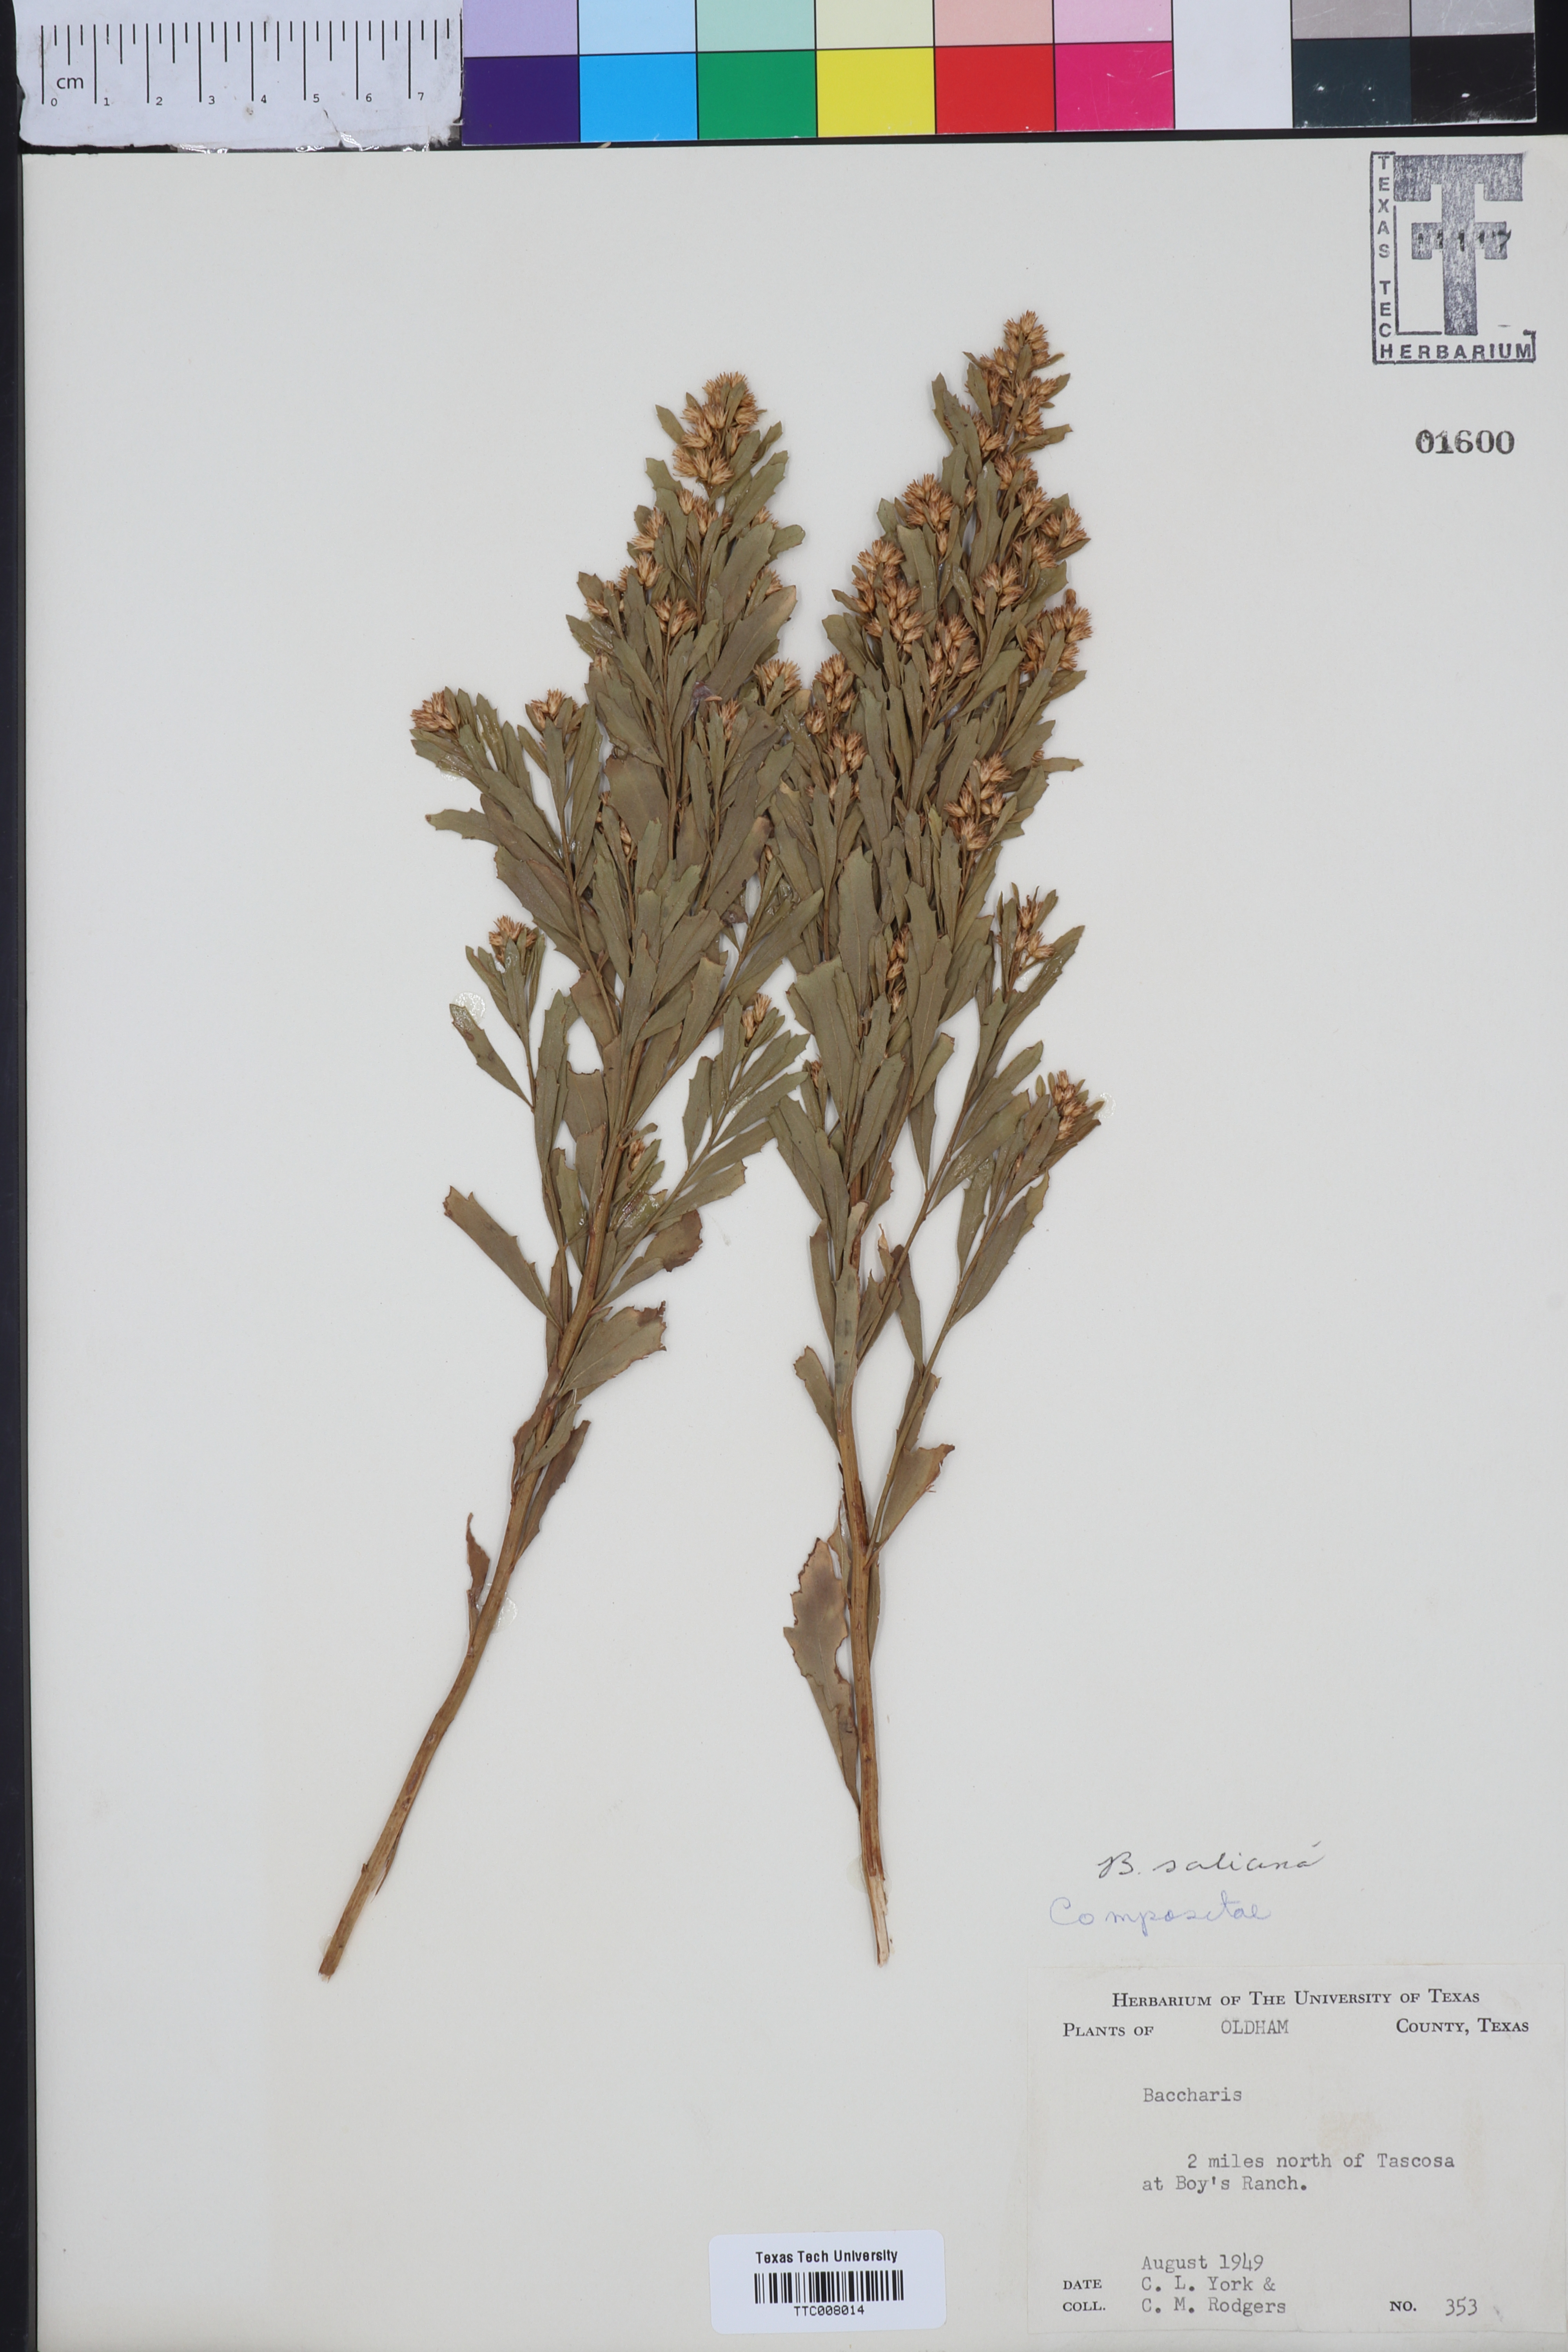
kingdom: Plantae
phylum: Tracheophyta
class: Magnoliopsida
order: Asterales
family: Asteraceae
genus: Baccharis
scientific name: Baccharis salicina
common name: Willow baccharis
